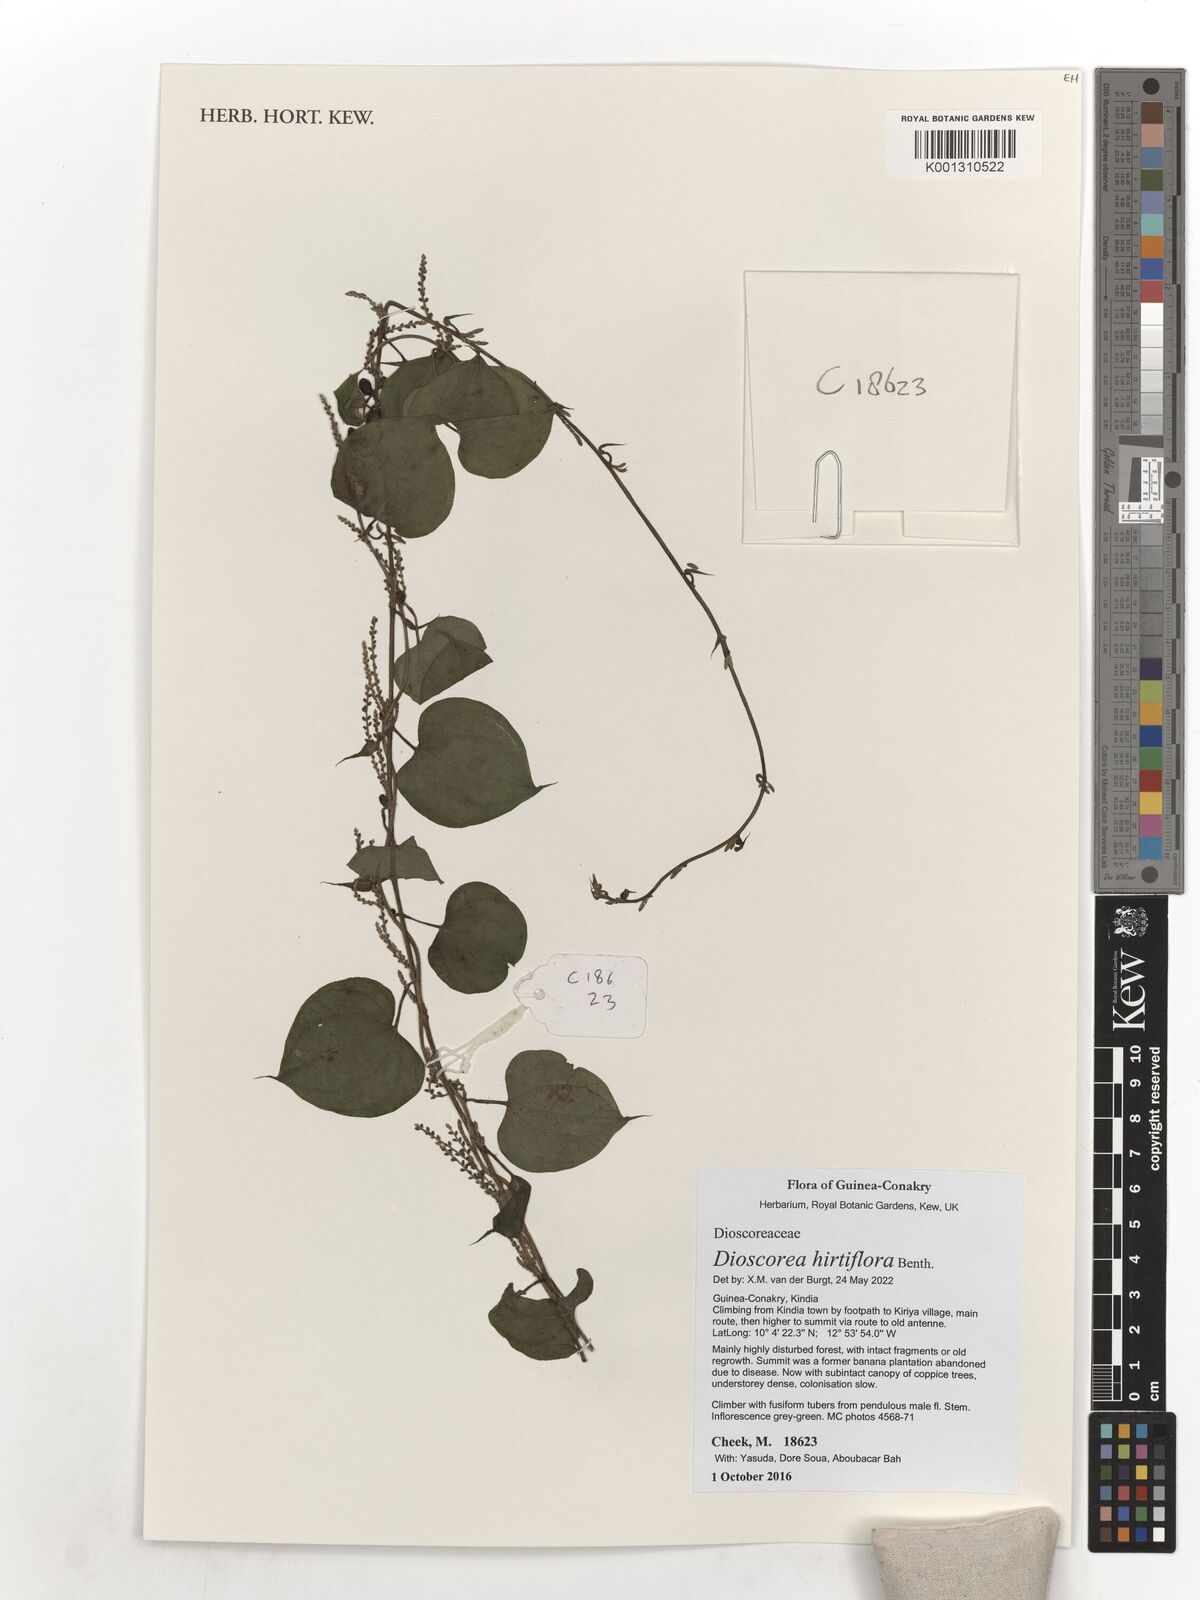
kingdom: Plantae
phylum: Tracheophyta
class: Liliopsida
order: Dioscoreales
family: Dioscoreaceae
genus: Dioscorea
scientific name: Dioscorea hirtiflora
